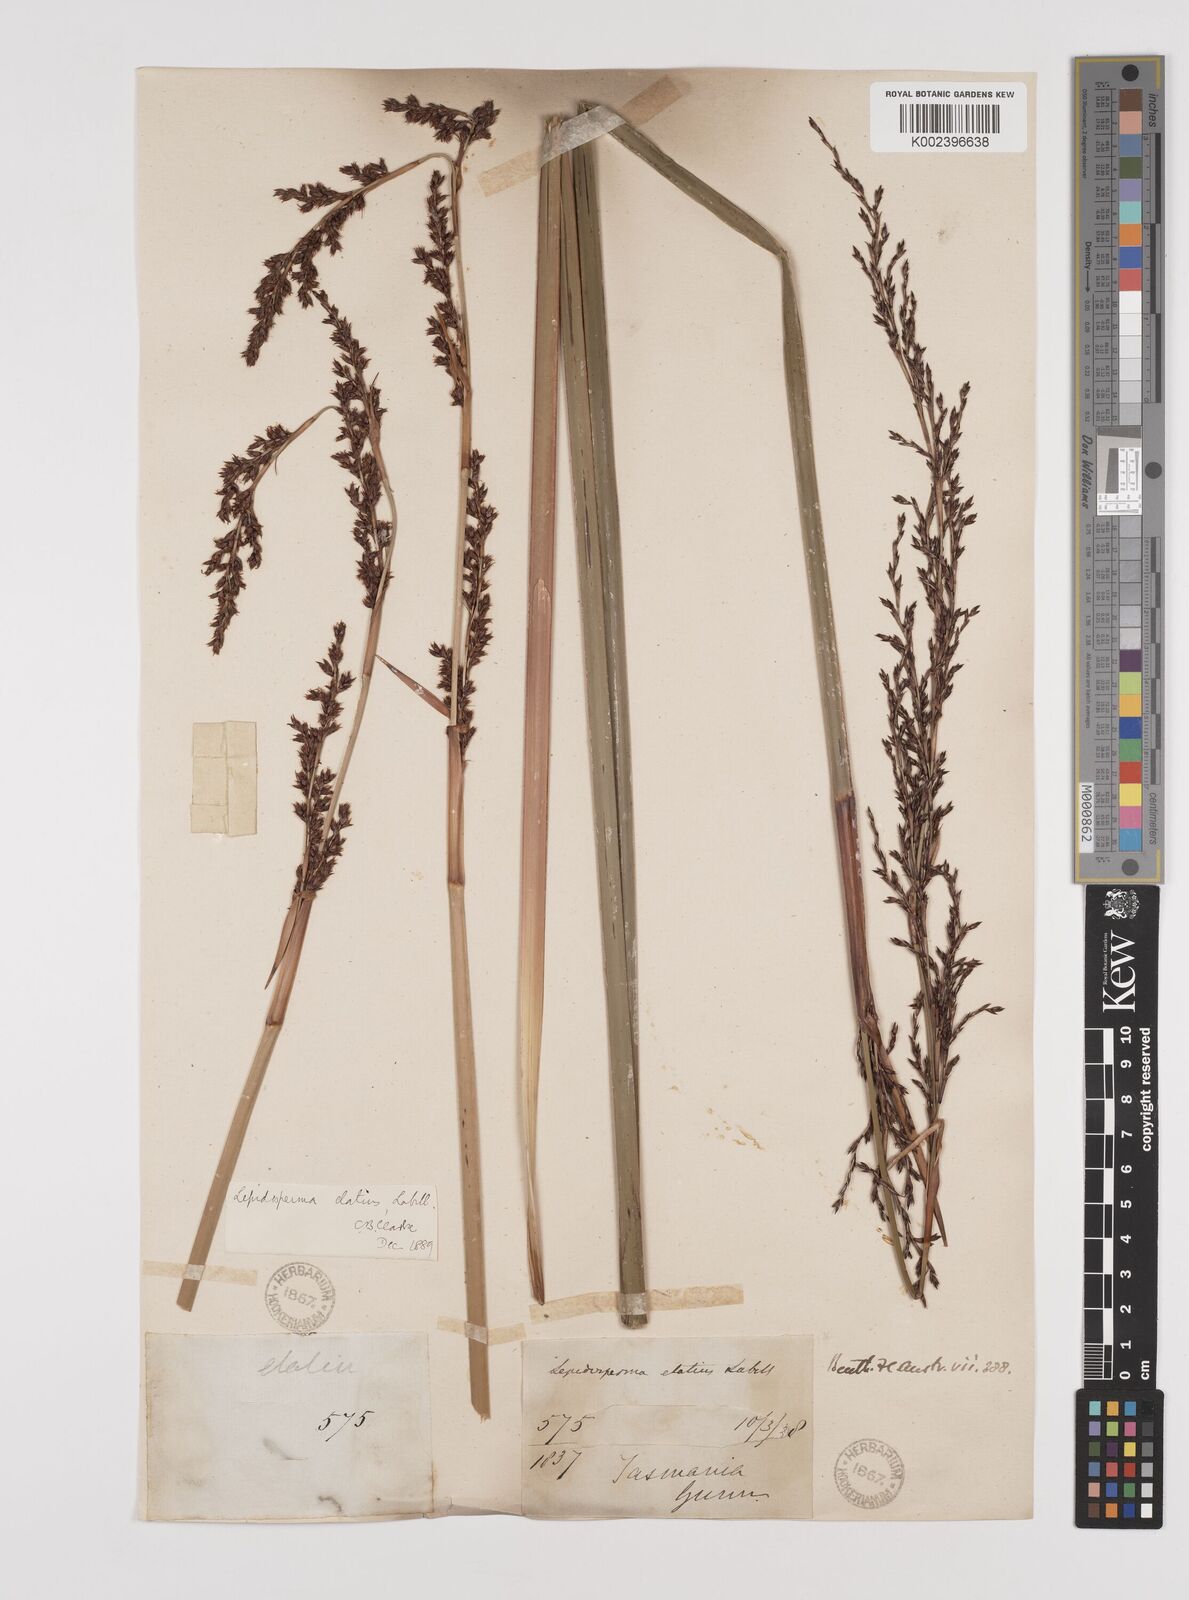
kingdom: Plantae
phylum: Tracheophyta
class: Liliopsida
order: Poales
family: Cyperaceae
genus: Lepidosperma
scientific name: Lepidosperma elatius
